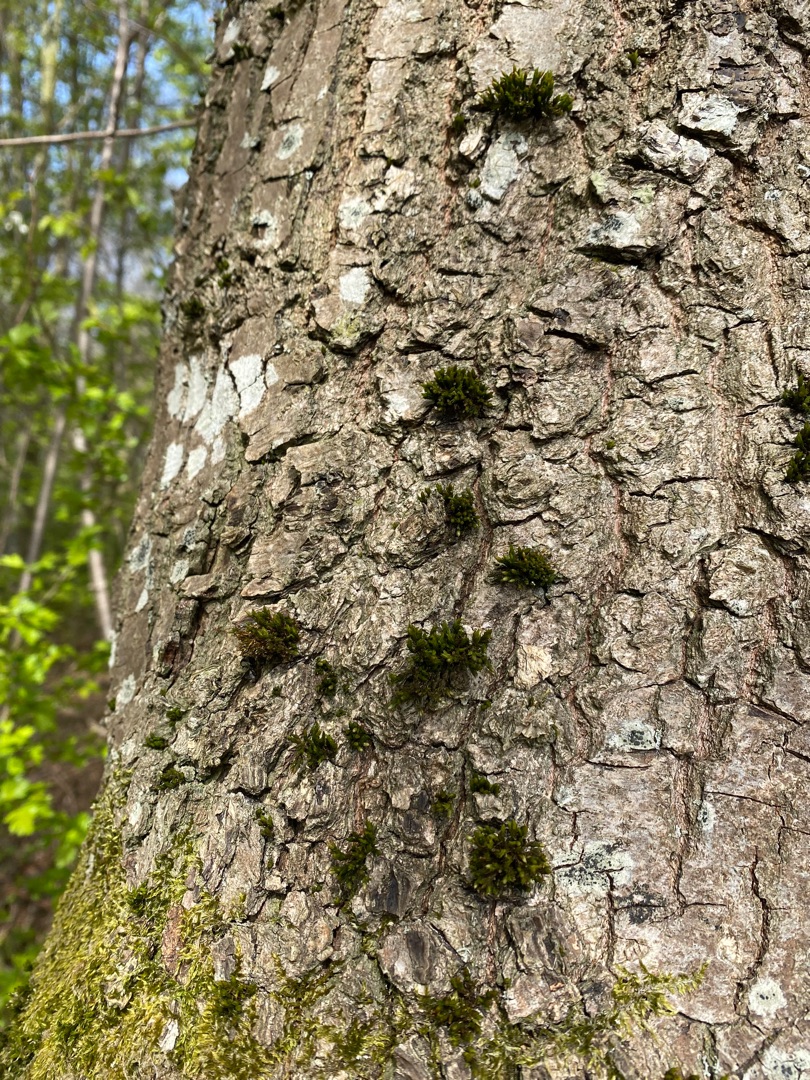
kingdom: Plantae
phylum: Bryophyta
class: Bryopsida
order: Orthotrichales
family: Orthotrichaceae
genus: Lewinskya
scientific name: Lewinskya affinis
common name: Almindelig furehætte
